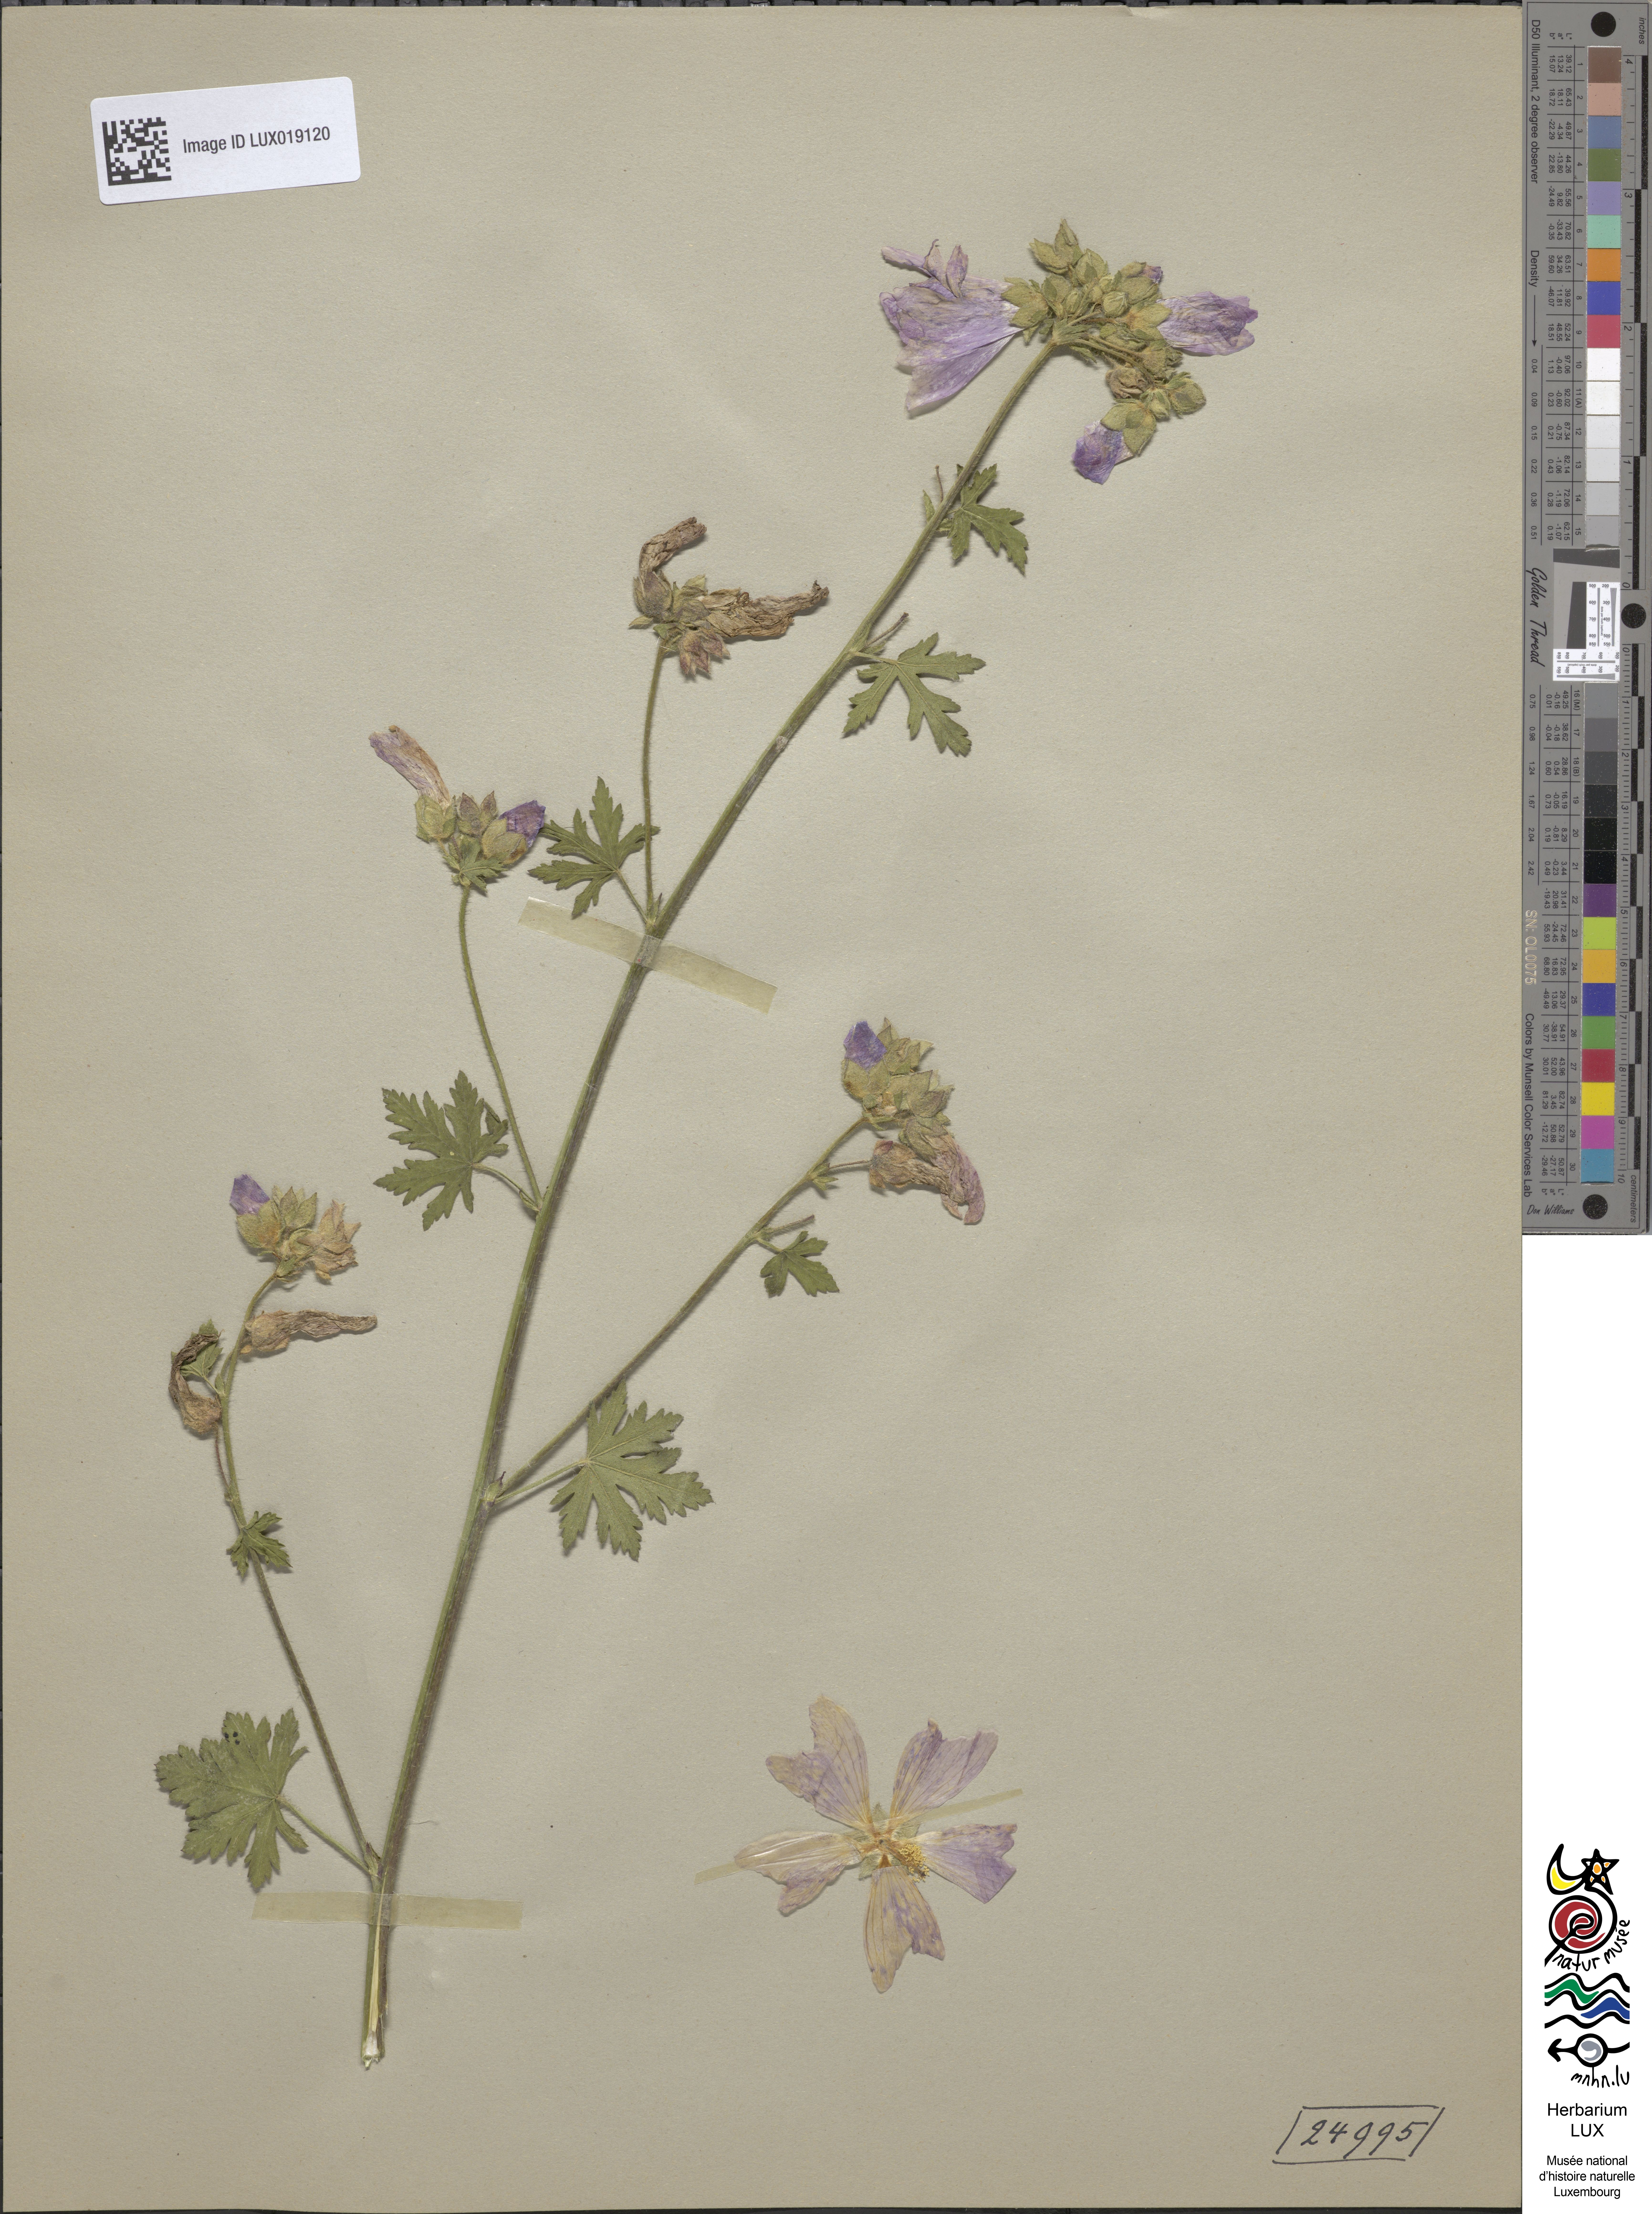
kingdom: Plantae
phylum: Tracheophyta
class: Magnoliopsida
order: Malvales
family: Malvaceae
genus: Malva
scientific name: Malva alcea
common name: Greater musk-mallow
